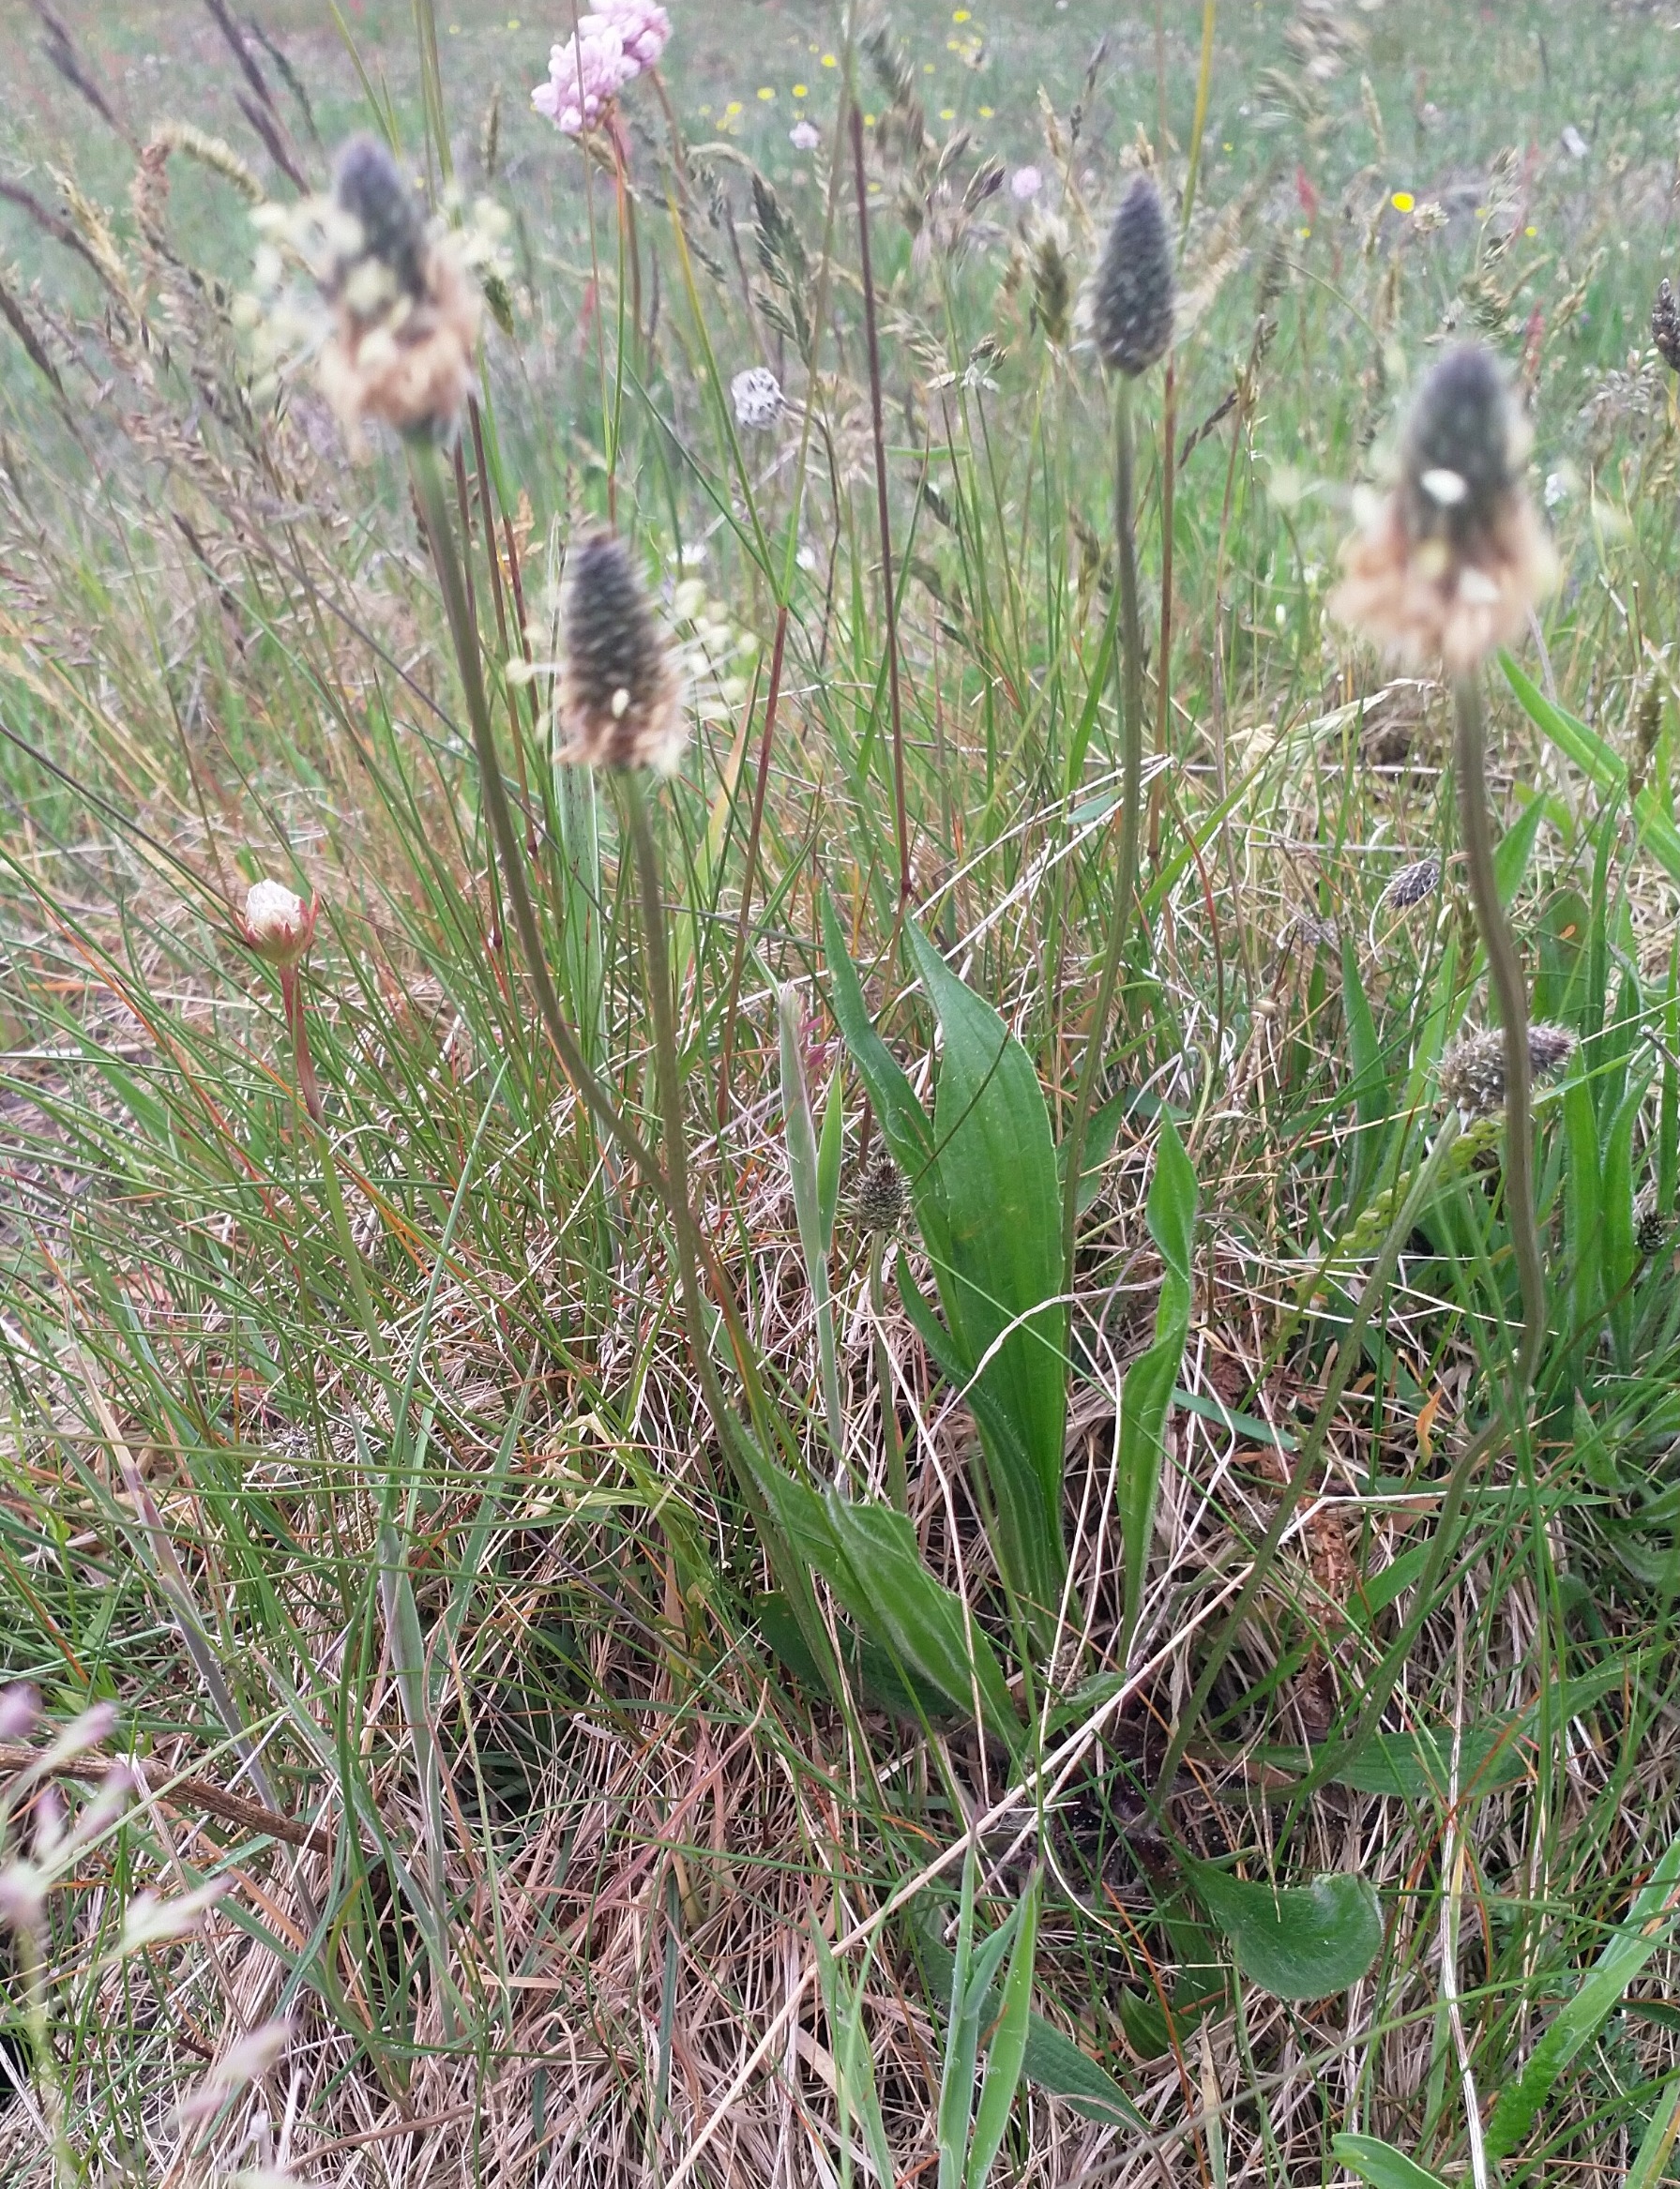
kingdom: Plantae
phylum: Tracheophyta
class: Magnoliopsida
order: Lamiales
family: Plantaginaceae
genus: Plantago
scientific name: Plantago lanceolata
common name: Lancet-vejbred
